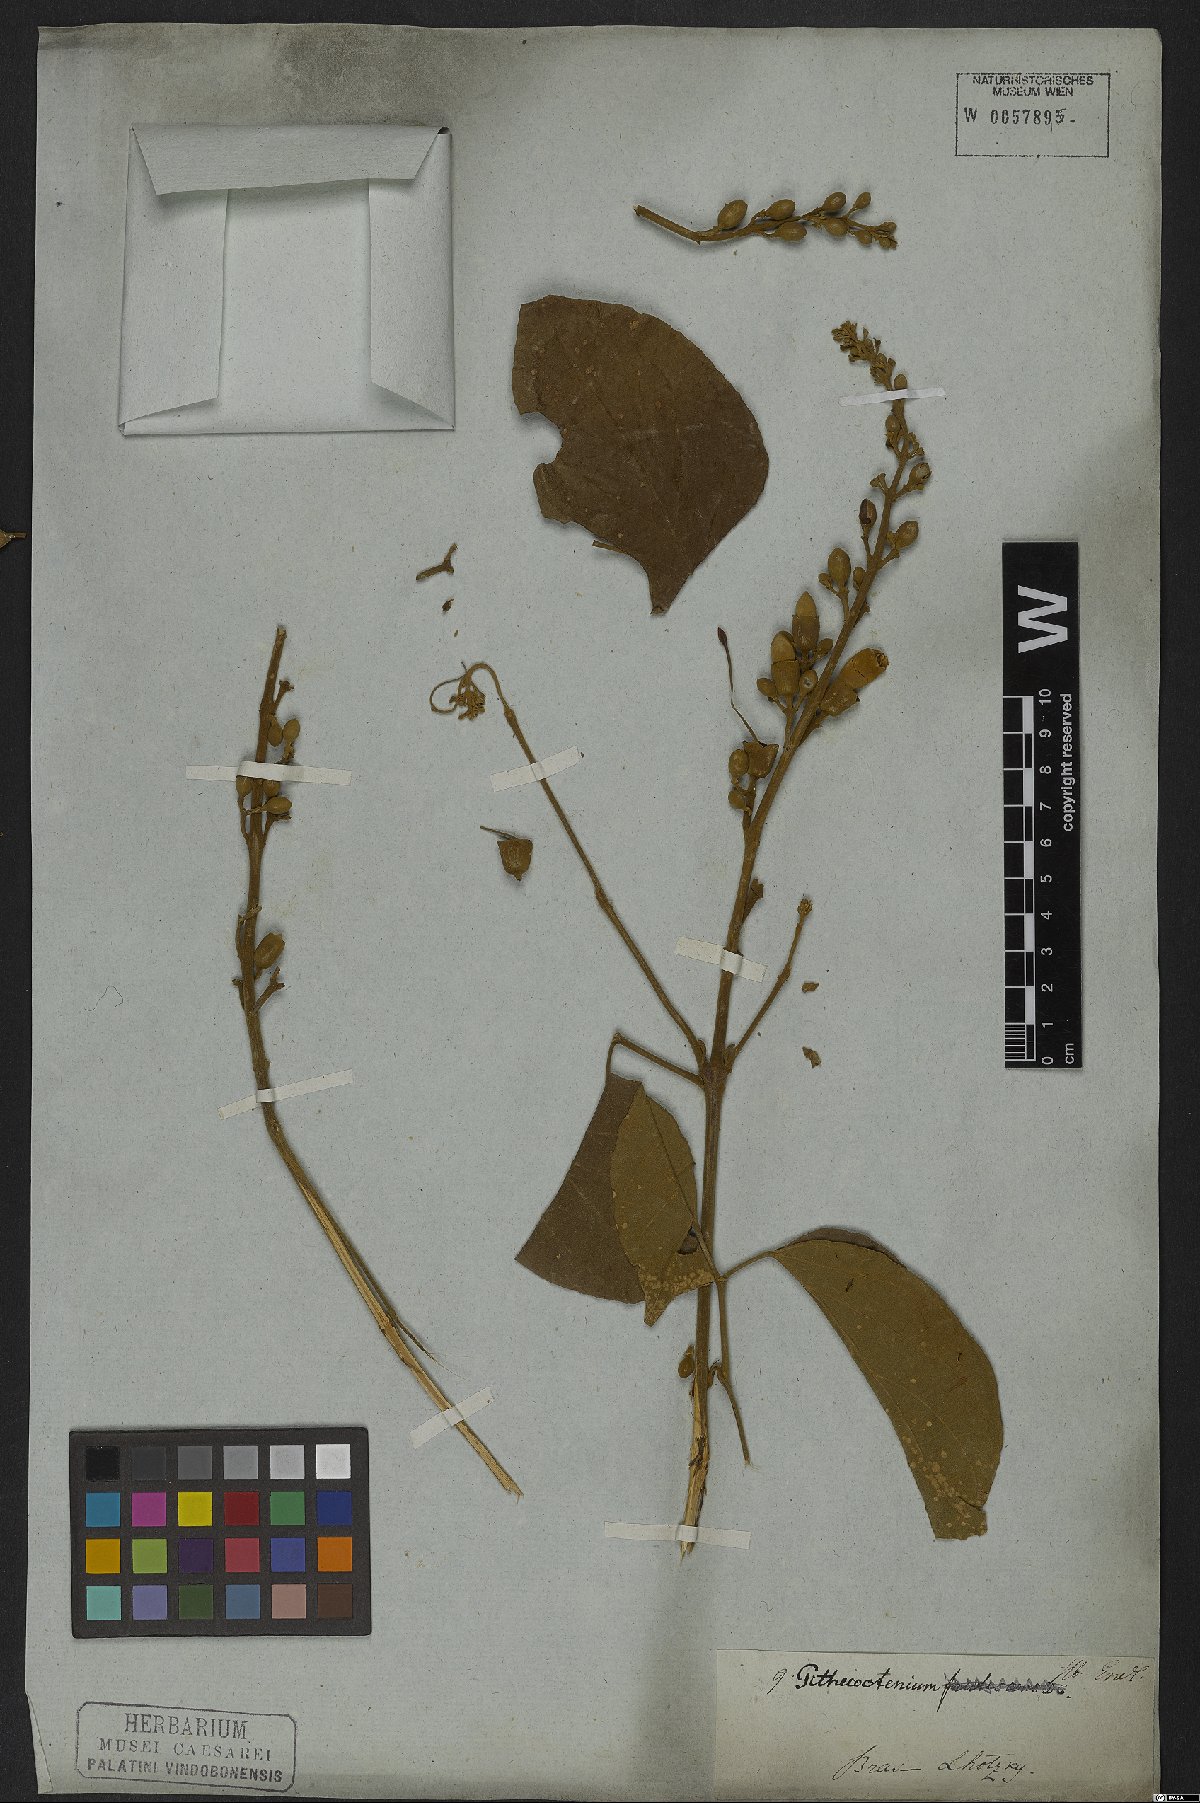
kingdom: Plantae
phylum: Tracheophyta
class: Magnoliopsida
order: Lamiales
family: Bignoniaceae
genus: Amphilophium
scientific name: Amphilophium mansoanum
